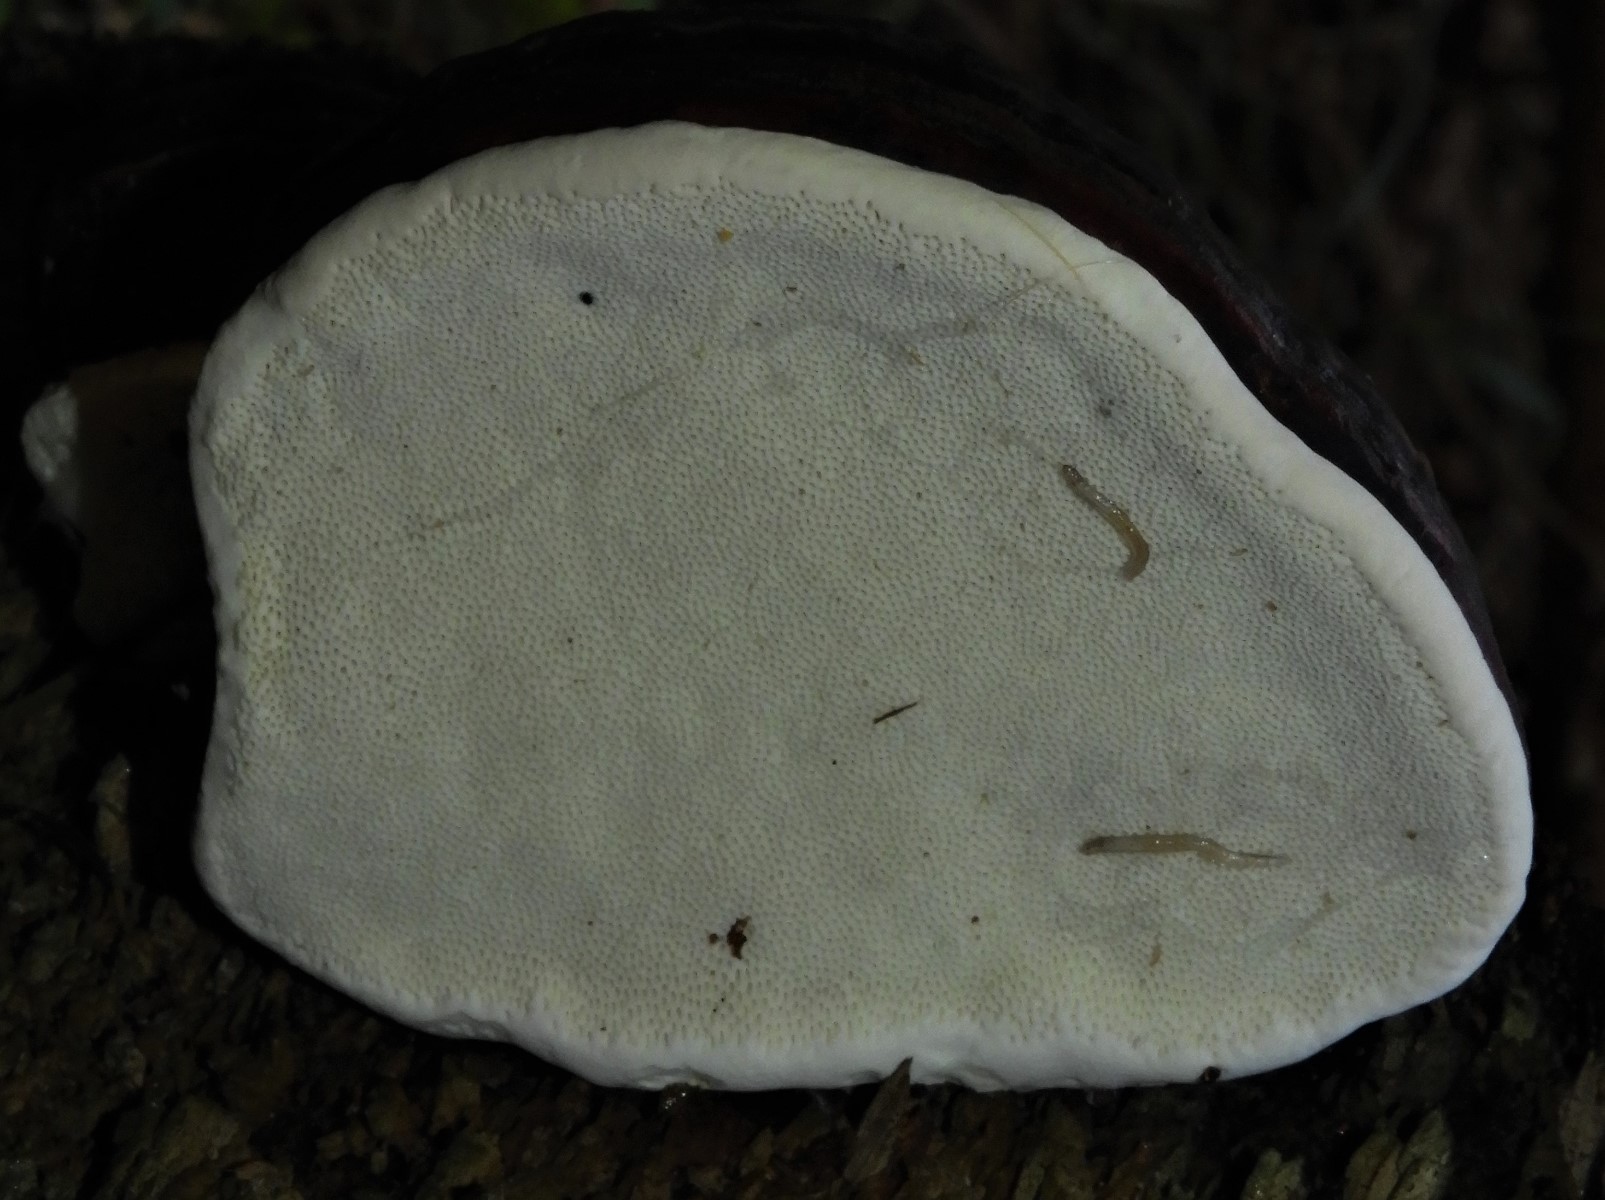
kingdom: Fungi
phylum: Basidiomycota
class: Agaricomycetes
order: Polyporales
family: Polyporaceae
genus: Fomes
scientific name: Fomes fomentarius
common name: tøndersvamp
